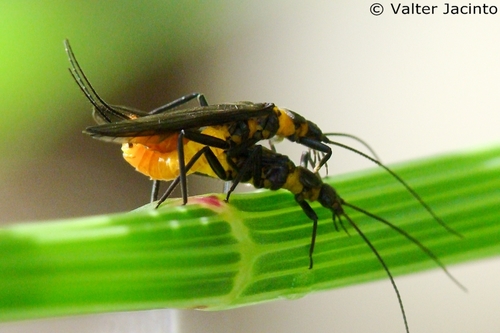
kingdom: Animalia
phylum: Arthropoda
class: Insecta
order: Plecoptera
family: Perlodidae
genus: Hemimelaena
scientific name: Hemimelaena flaviventris
